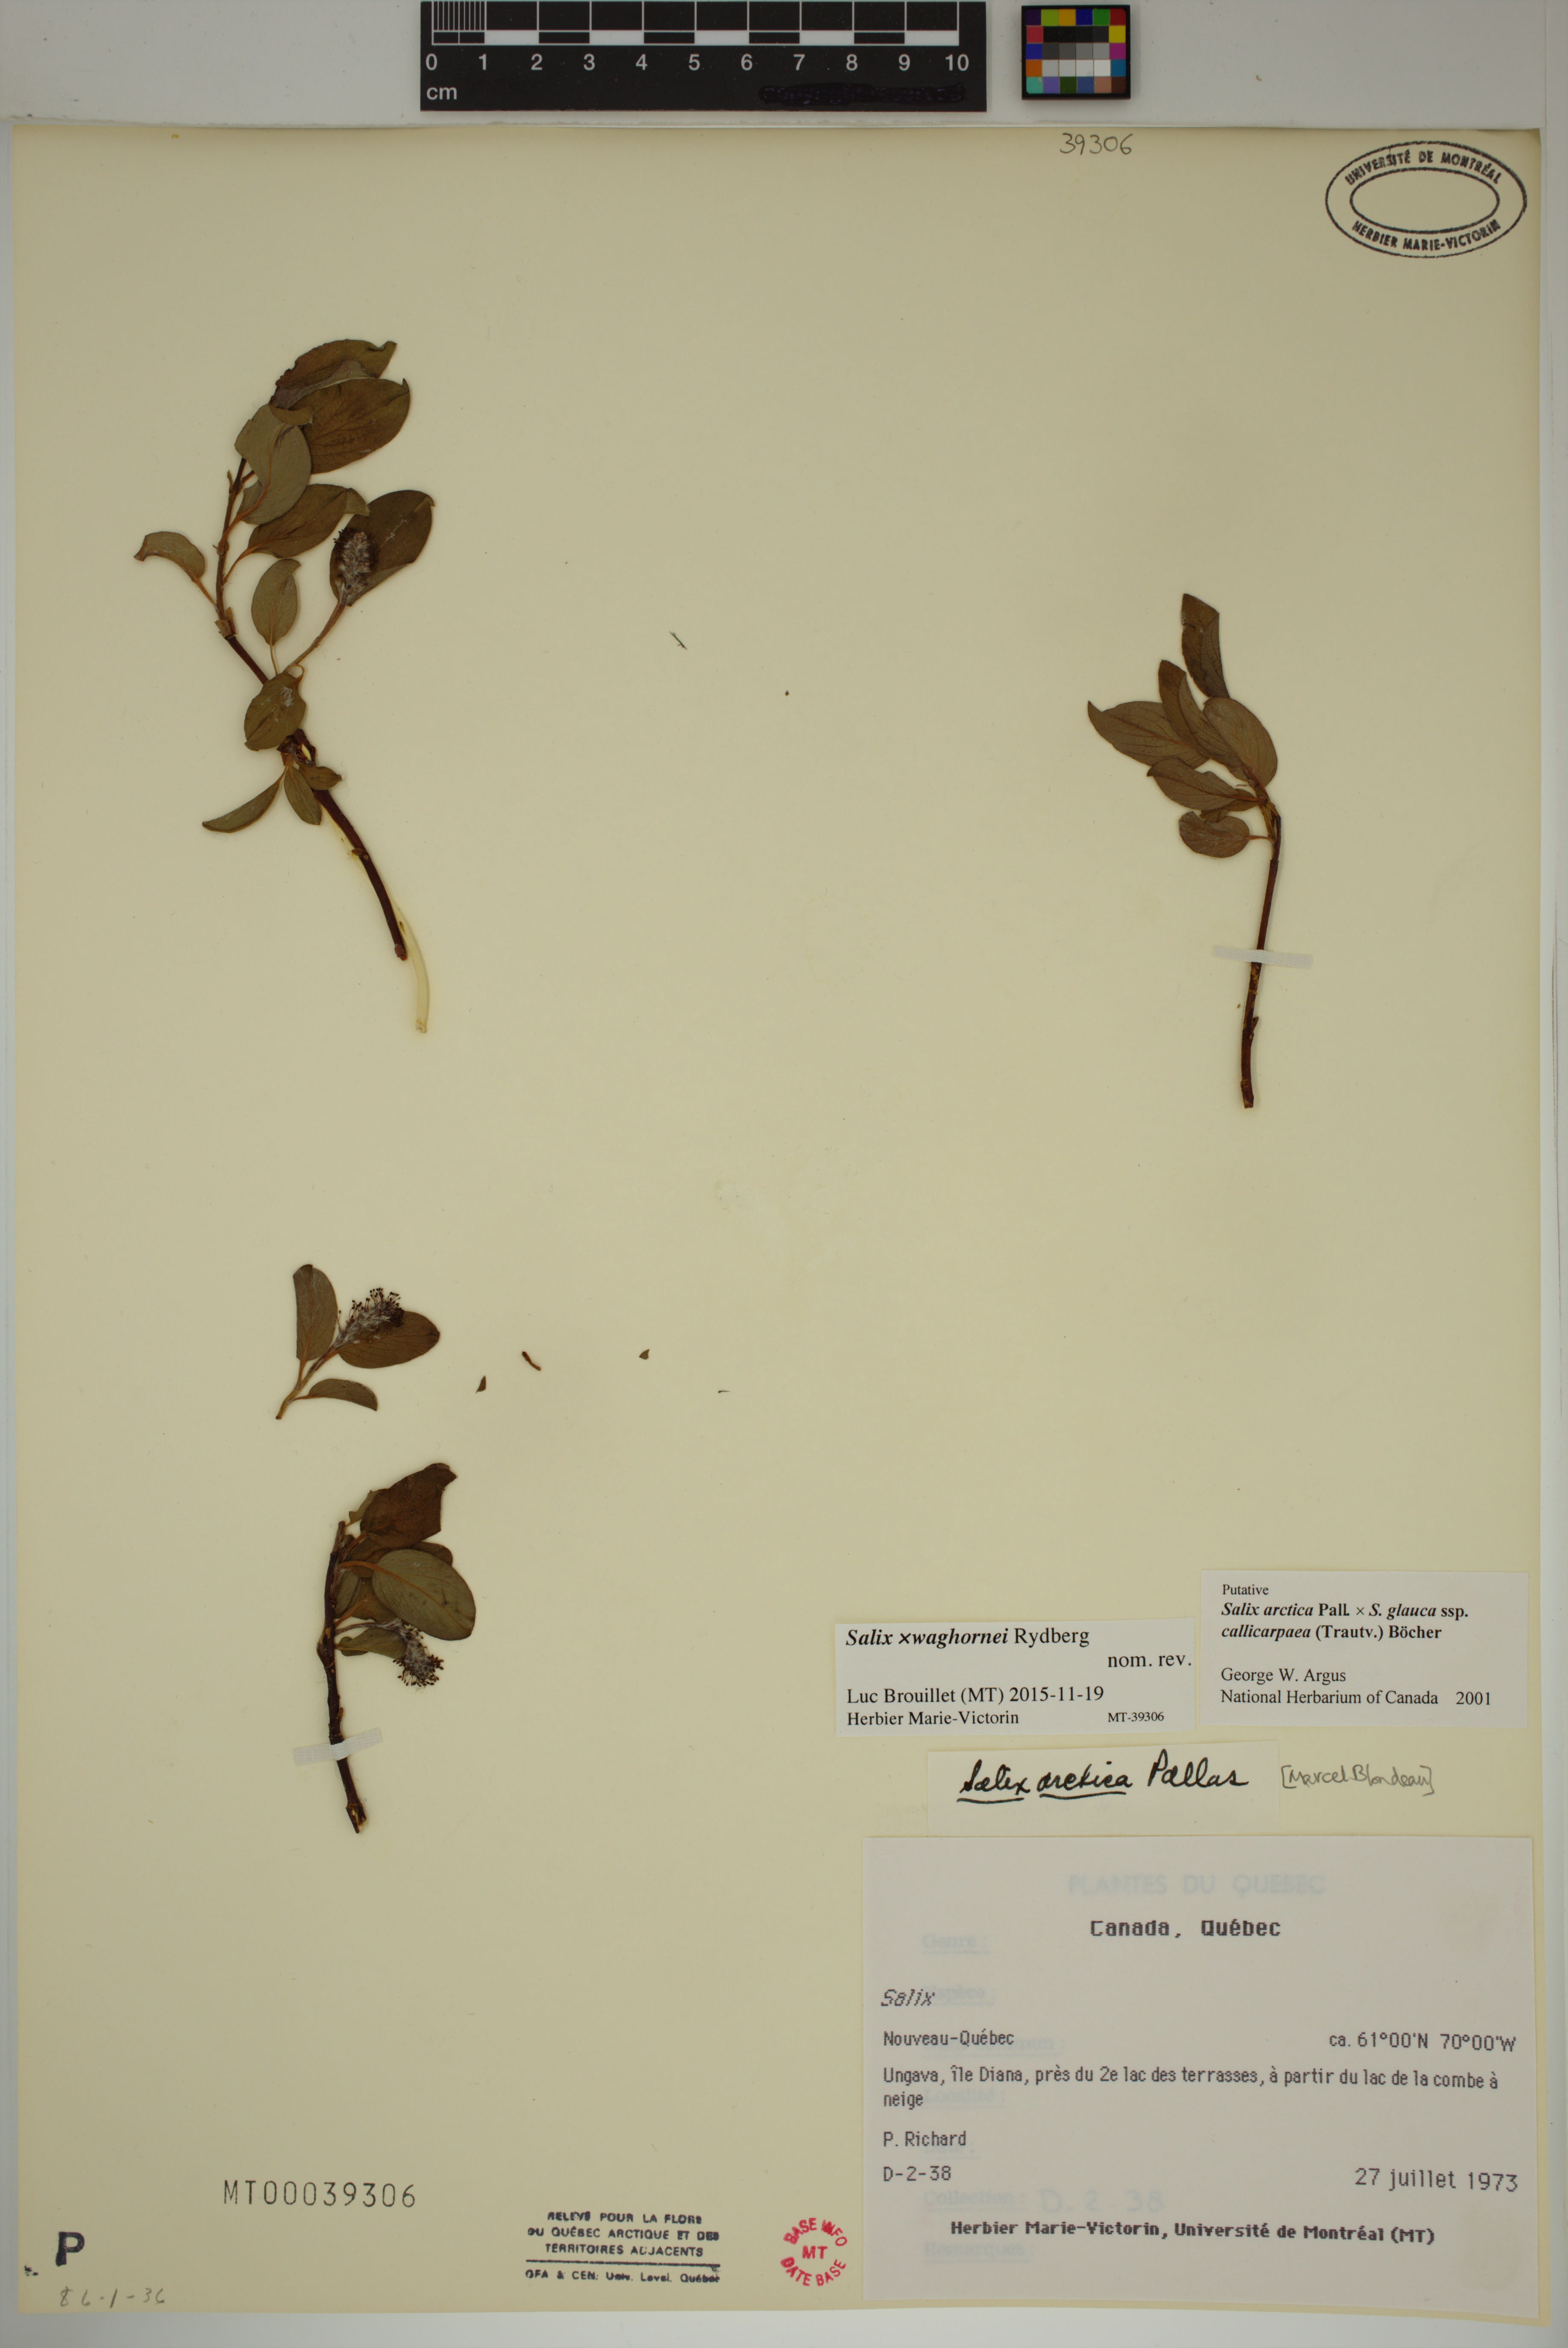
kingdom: Plantae
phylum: Tracheophyta
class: Magnoliopsida
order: Malpighiales
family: Salicaceae
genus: Salix
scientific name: Salix waghornei
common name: Waghorne's willow
